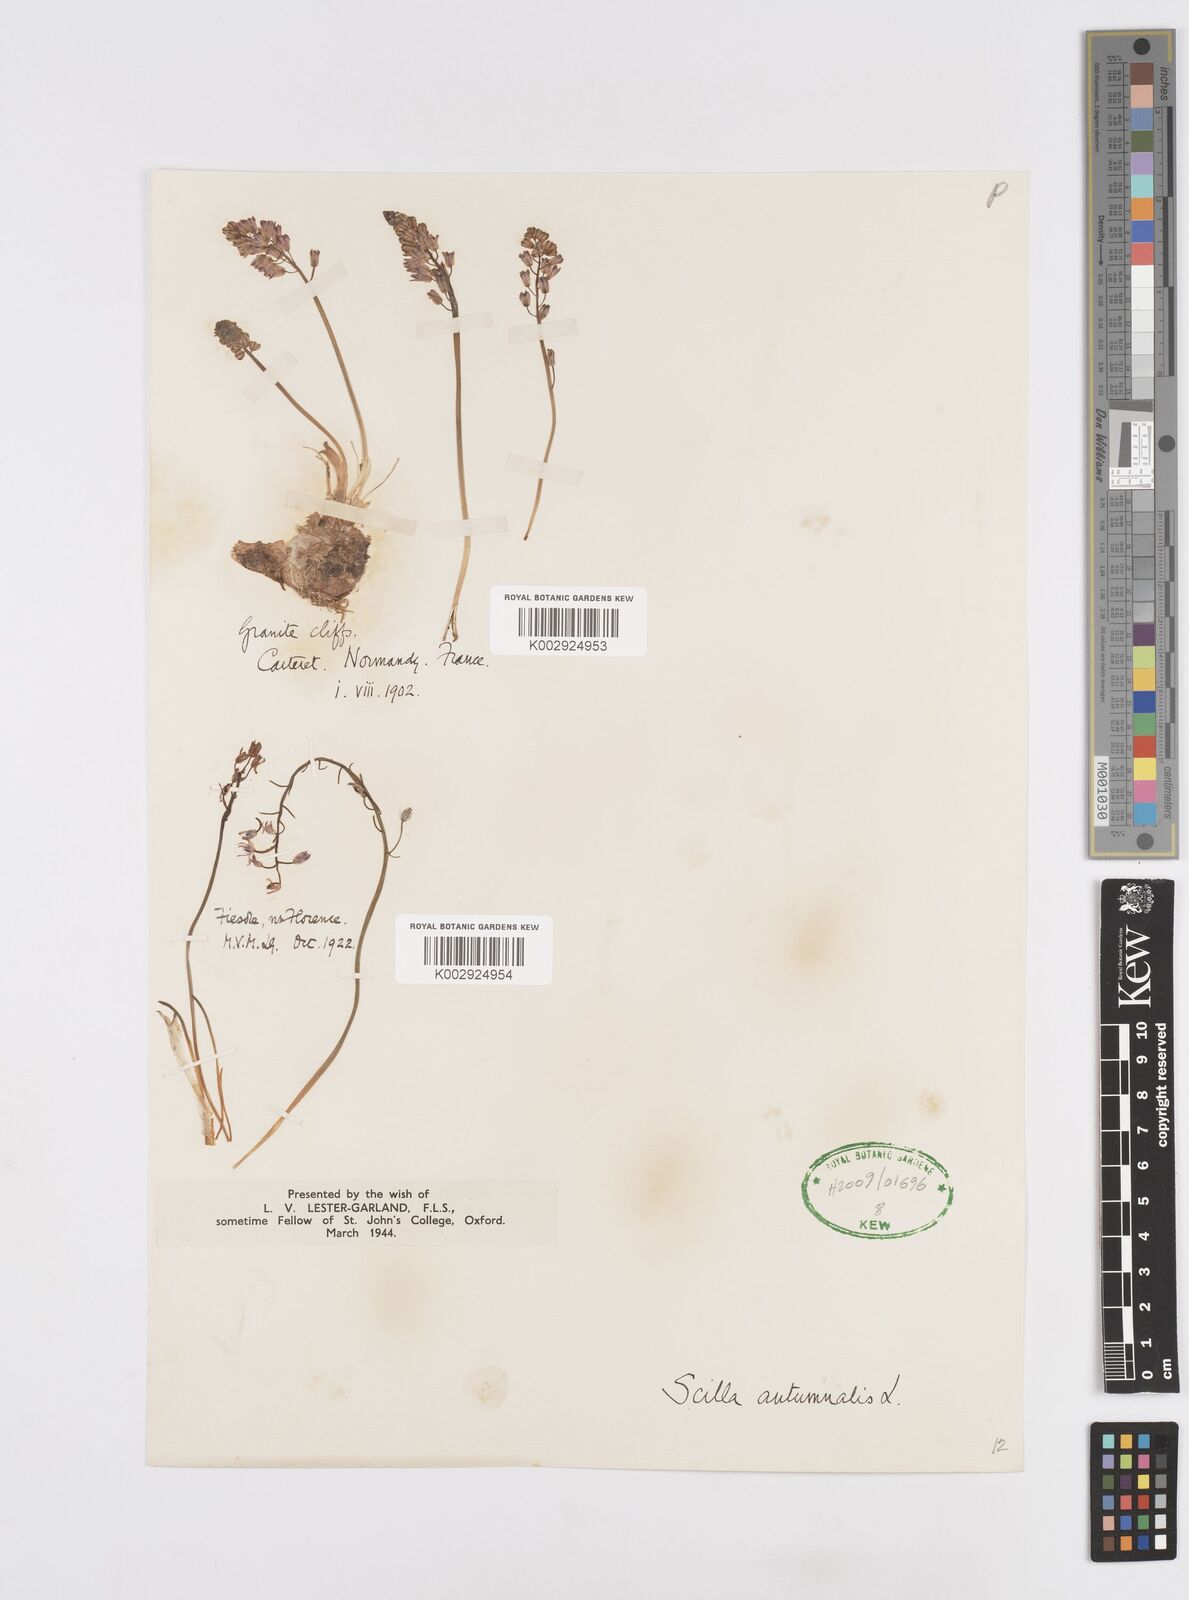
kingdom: Plantae
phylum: Tracheophyta
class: Liliopsida
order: Asparagales
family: Asparagaceae
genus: Prospero
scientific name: Prospero autumnale
